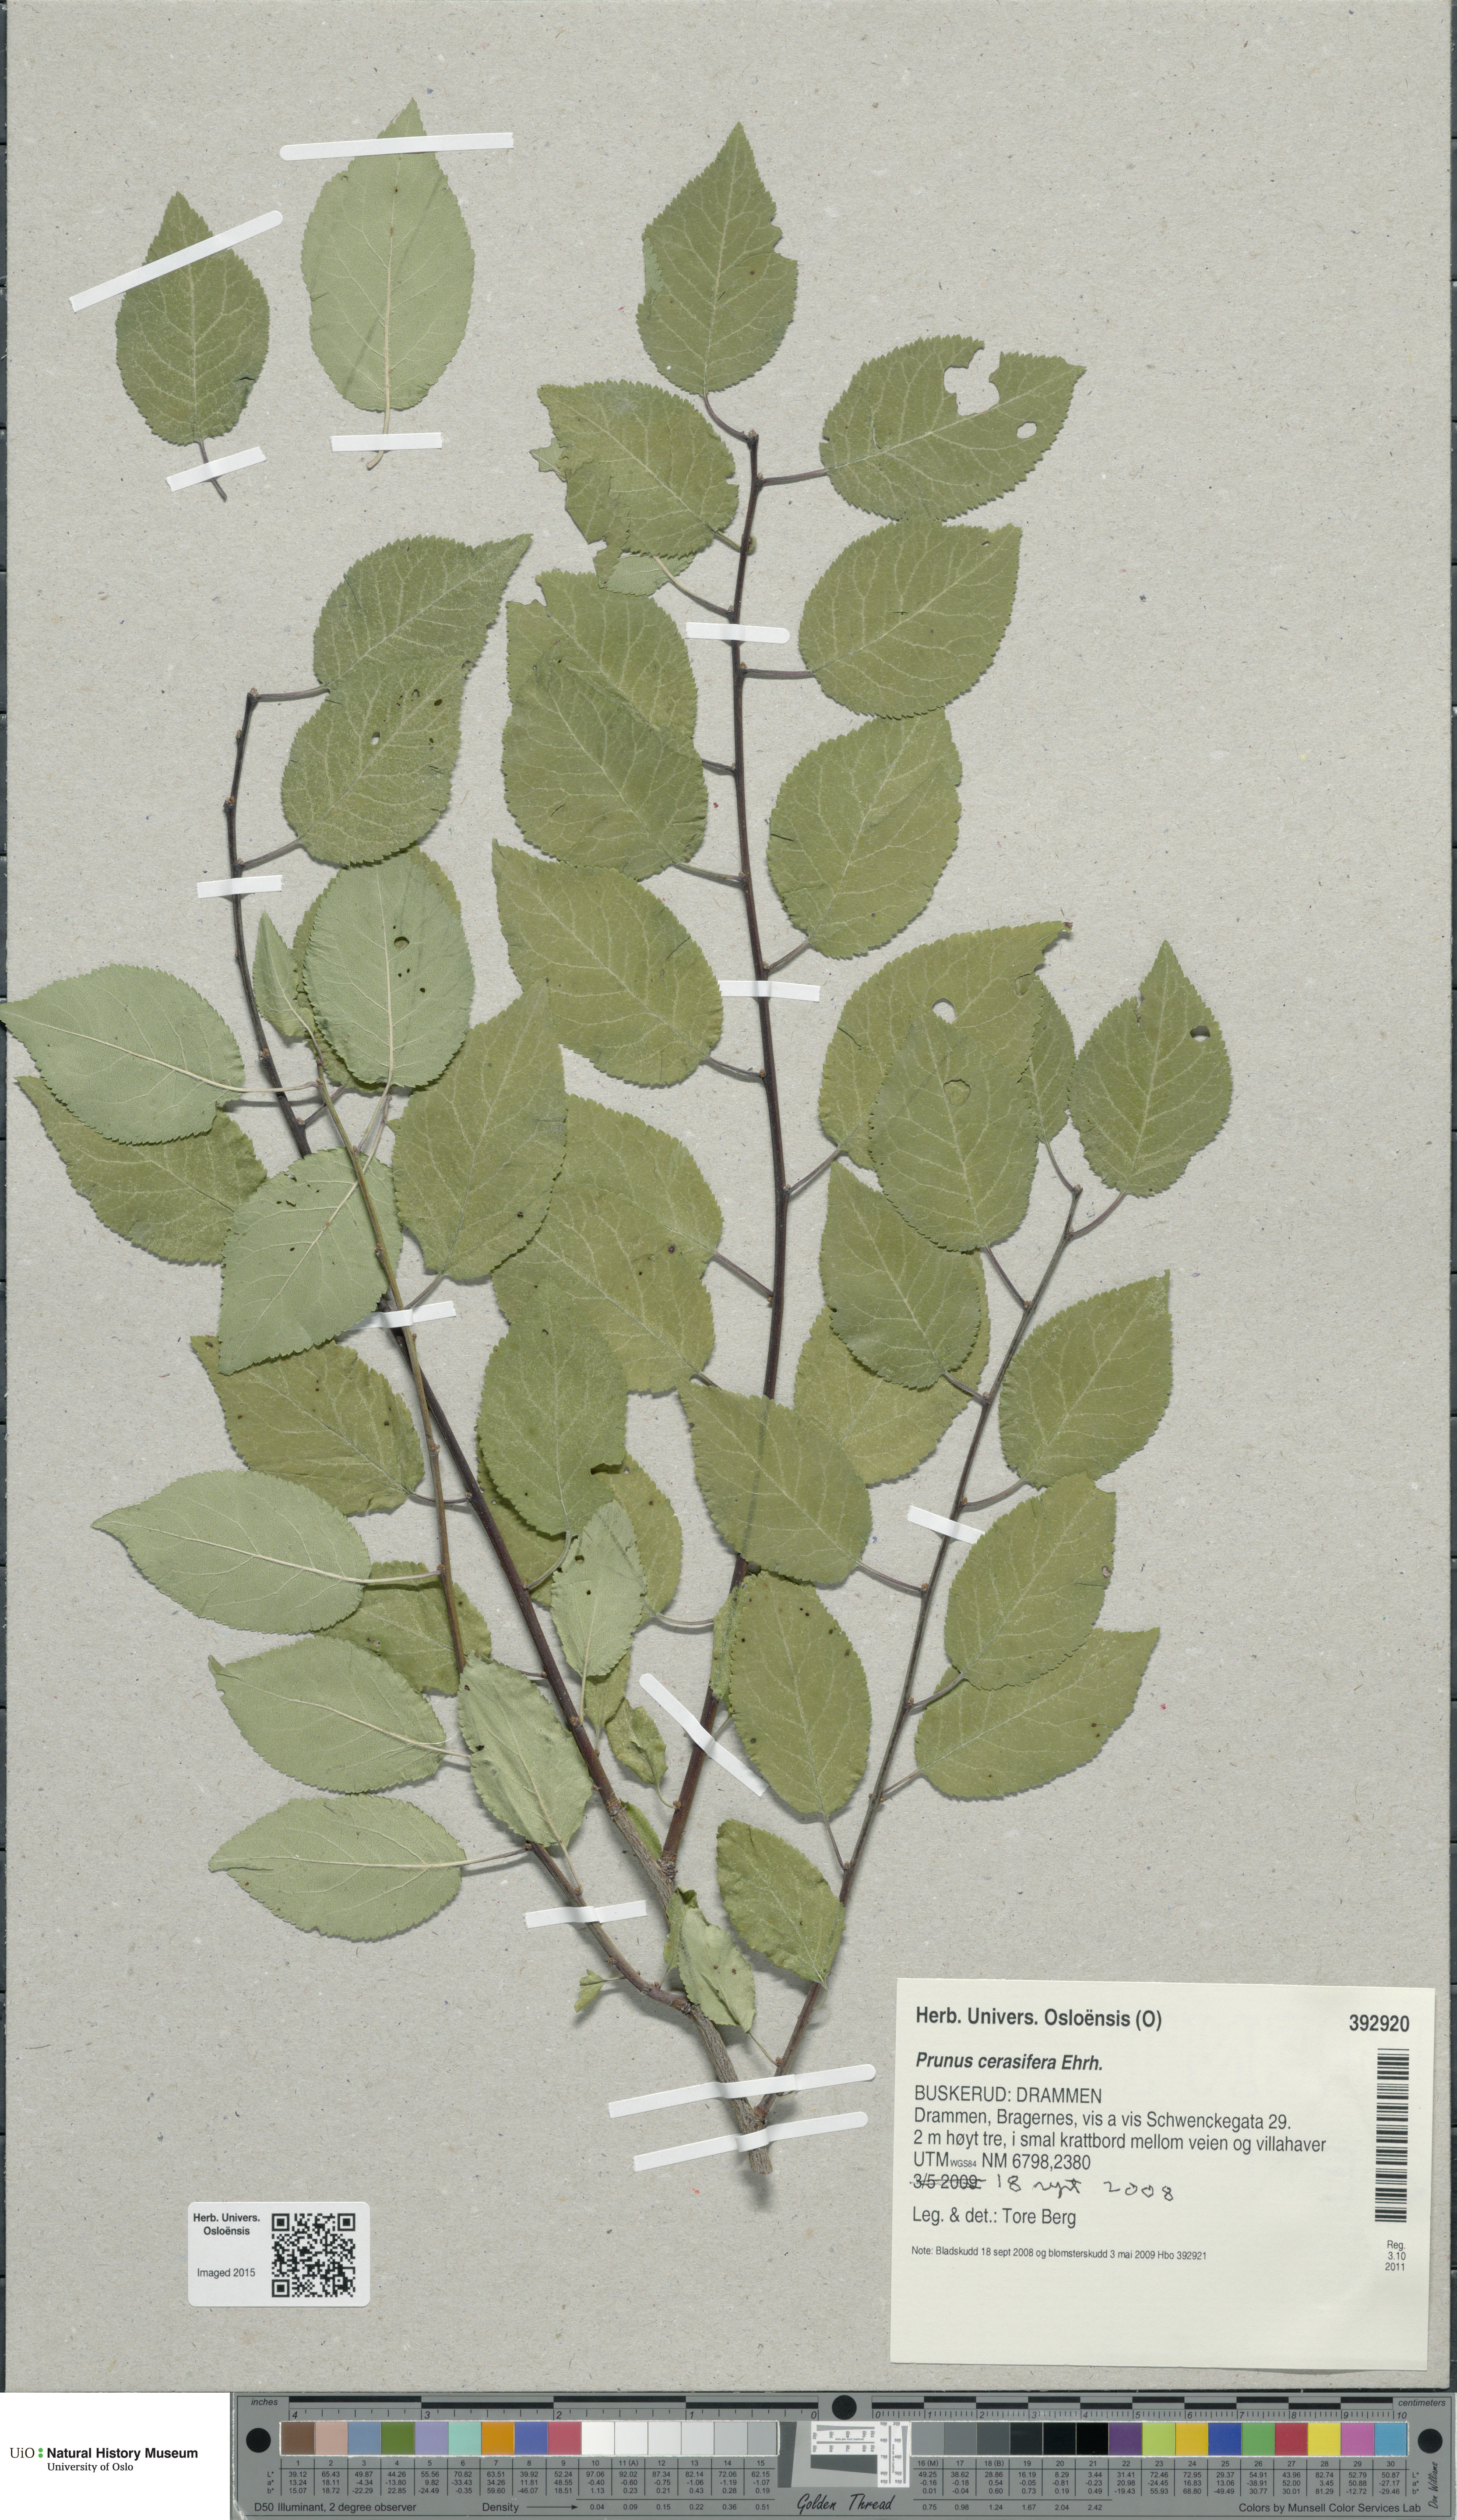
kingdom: Plantae
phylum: Tracheophyta
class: Magnoliopsida
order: Rosales
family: Rosaceae
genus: Prunus
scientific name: Prunus cerasifera
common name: Cherry plum
